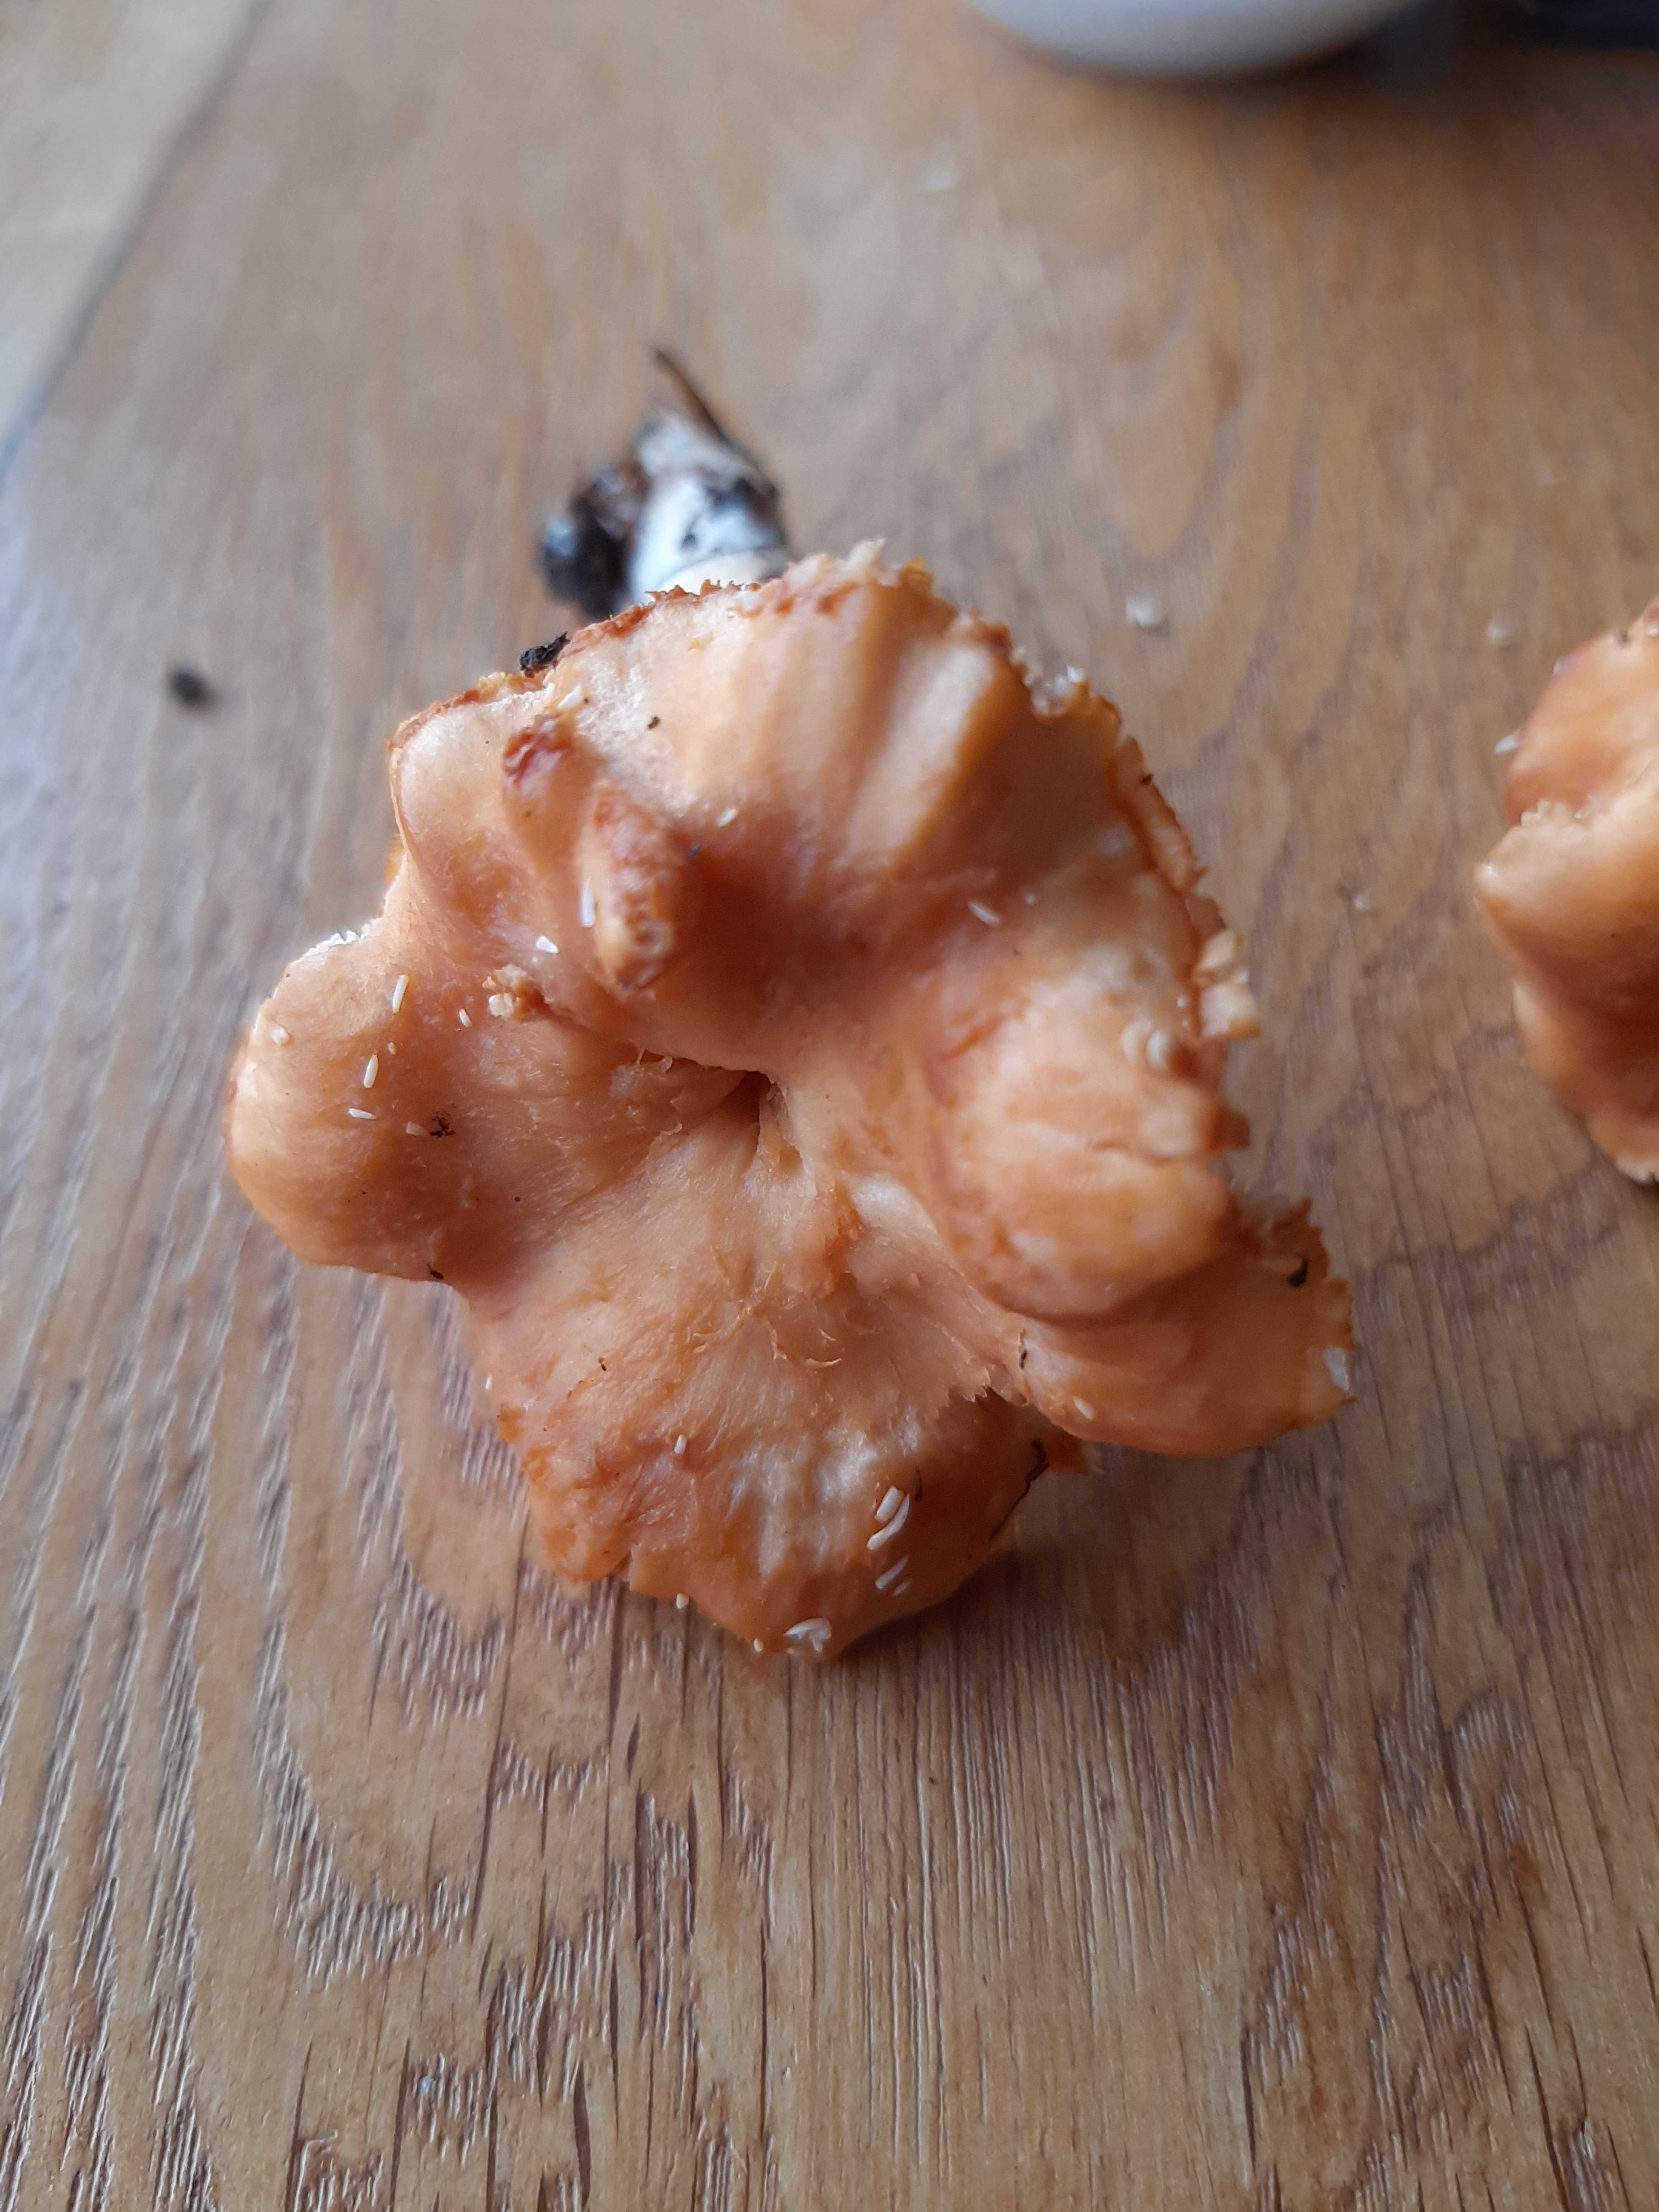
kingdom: Fungi
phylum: Basidiomycota
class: Agaricomycetes
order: Cantharellales
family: Hydnaceae
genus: Hydnum
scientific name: Hydnum umbilicatum
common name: navle-pigsvamp
